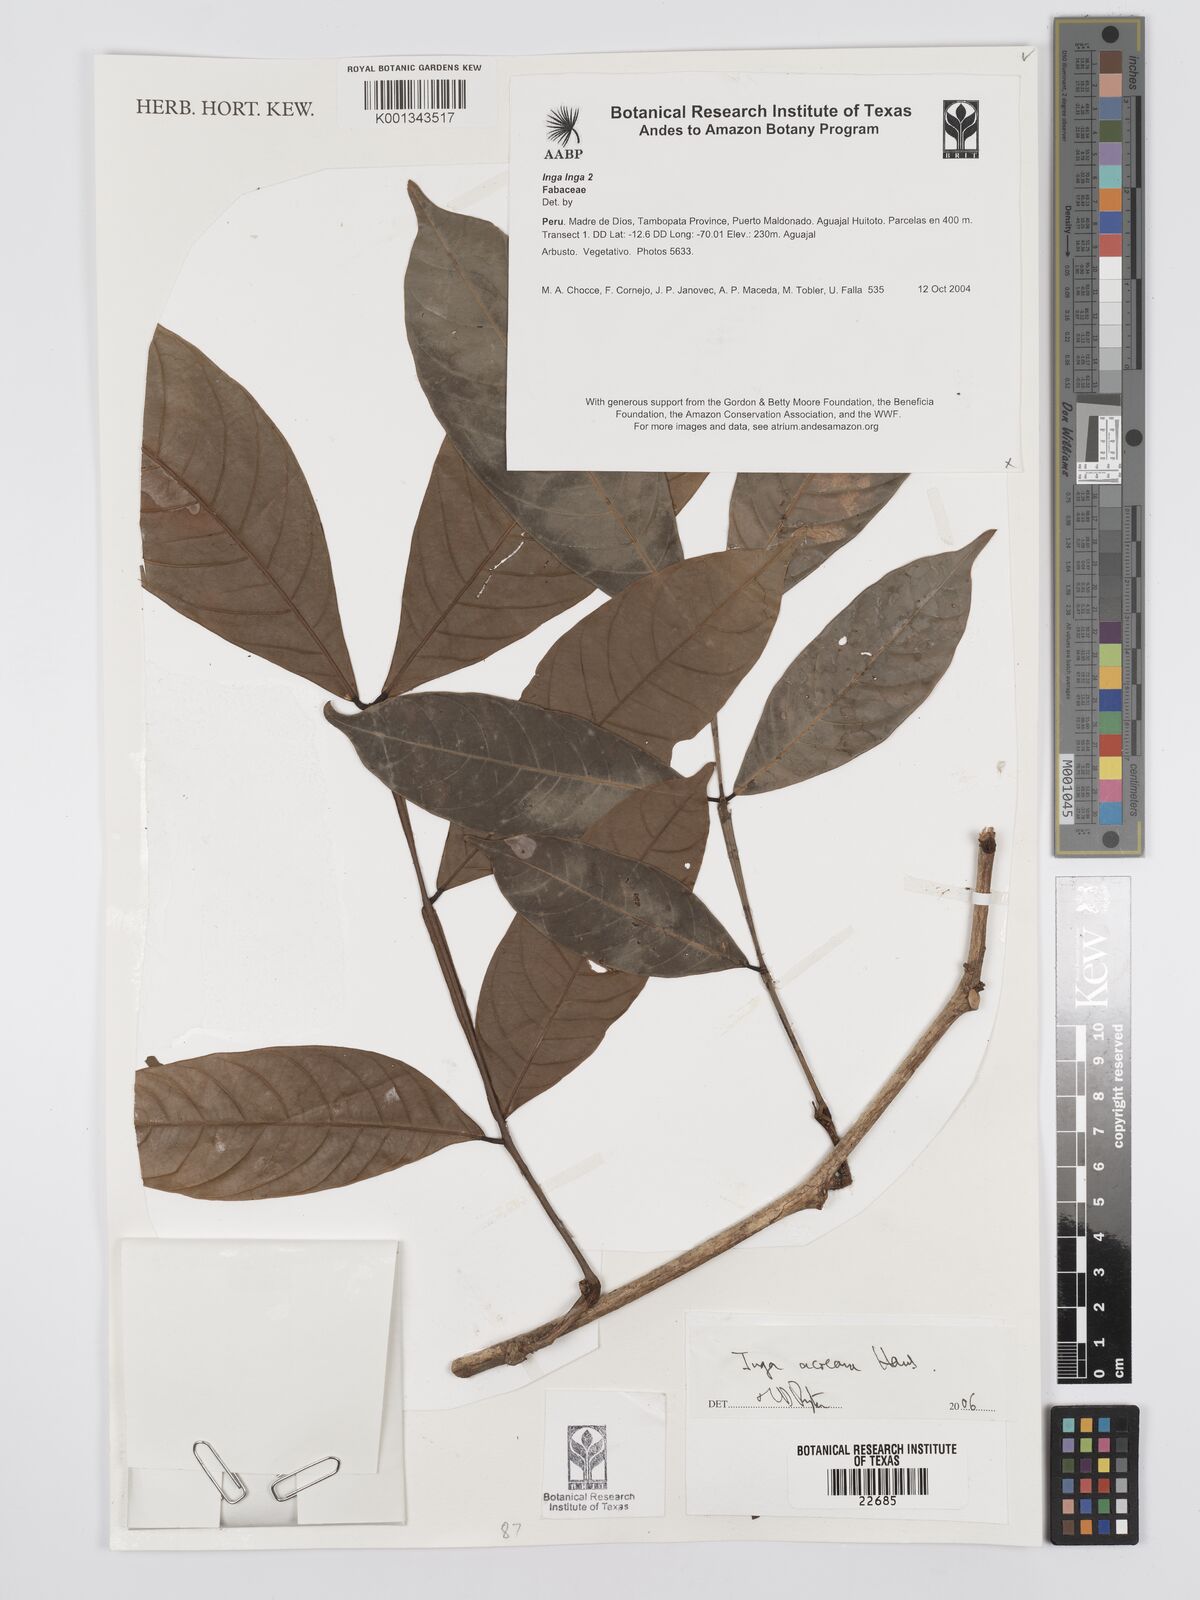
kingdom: Plantae
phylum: Tracheophyta
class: Magnoliopsida
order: Fabales
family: Fabaceae
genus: Inga
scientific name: Inga acreana
